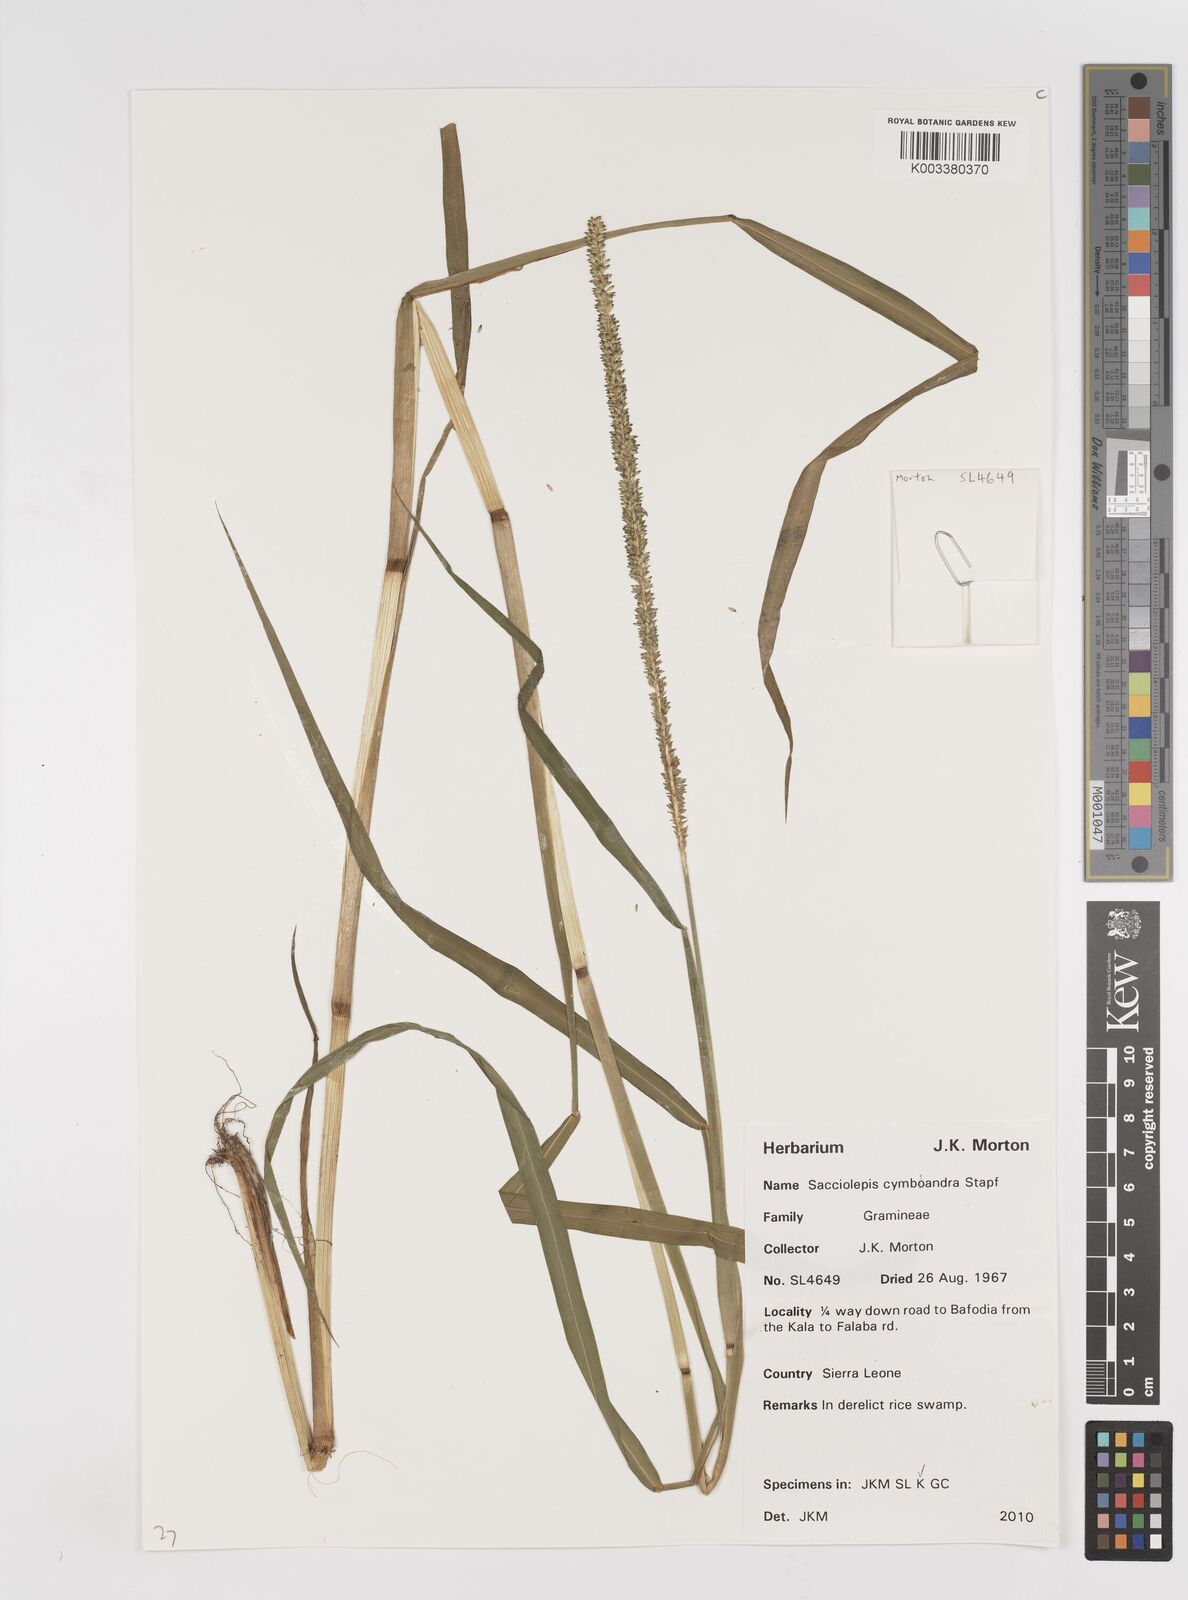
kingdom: Plantae
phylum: Tracheophyta
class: Liliopsida
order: Poales
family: Poaceae
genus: Sacciolepis
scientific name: Sacciolepis cymbiandra
